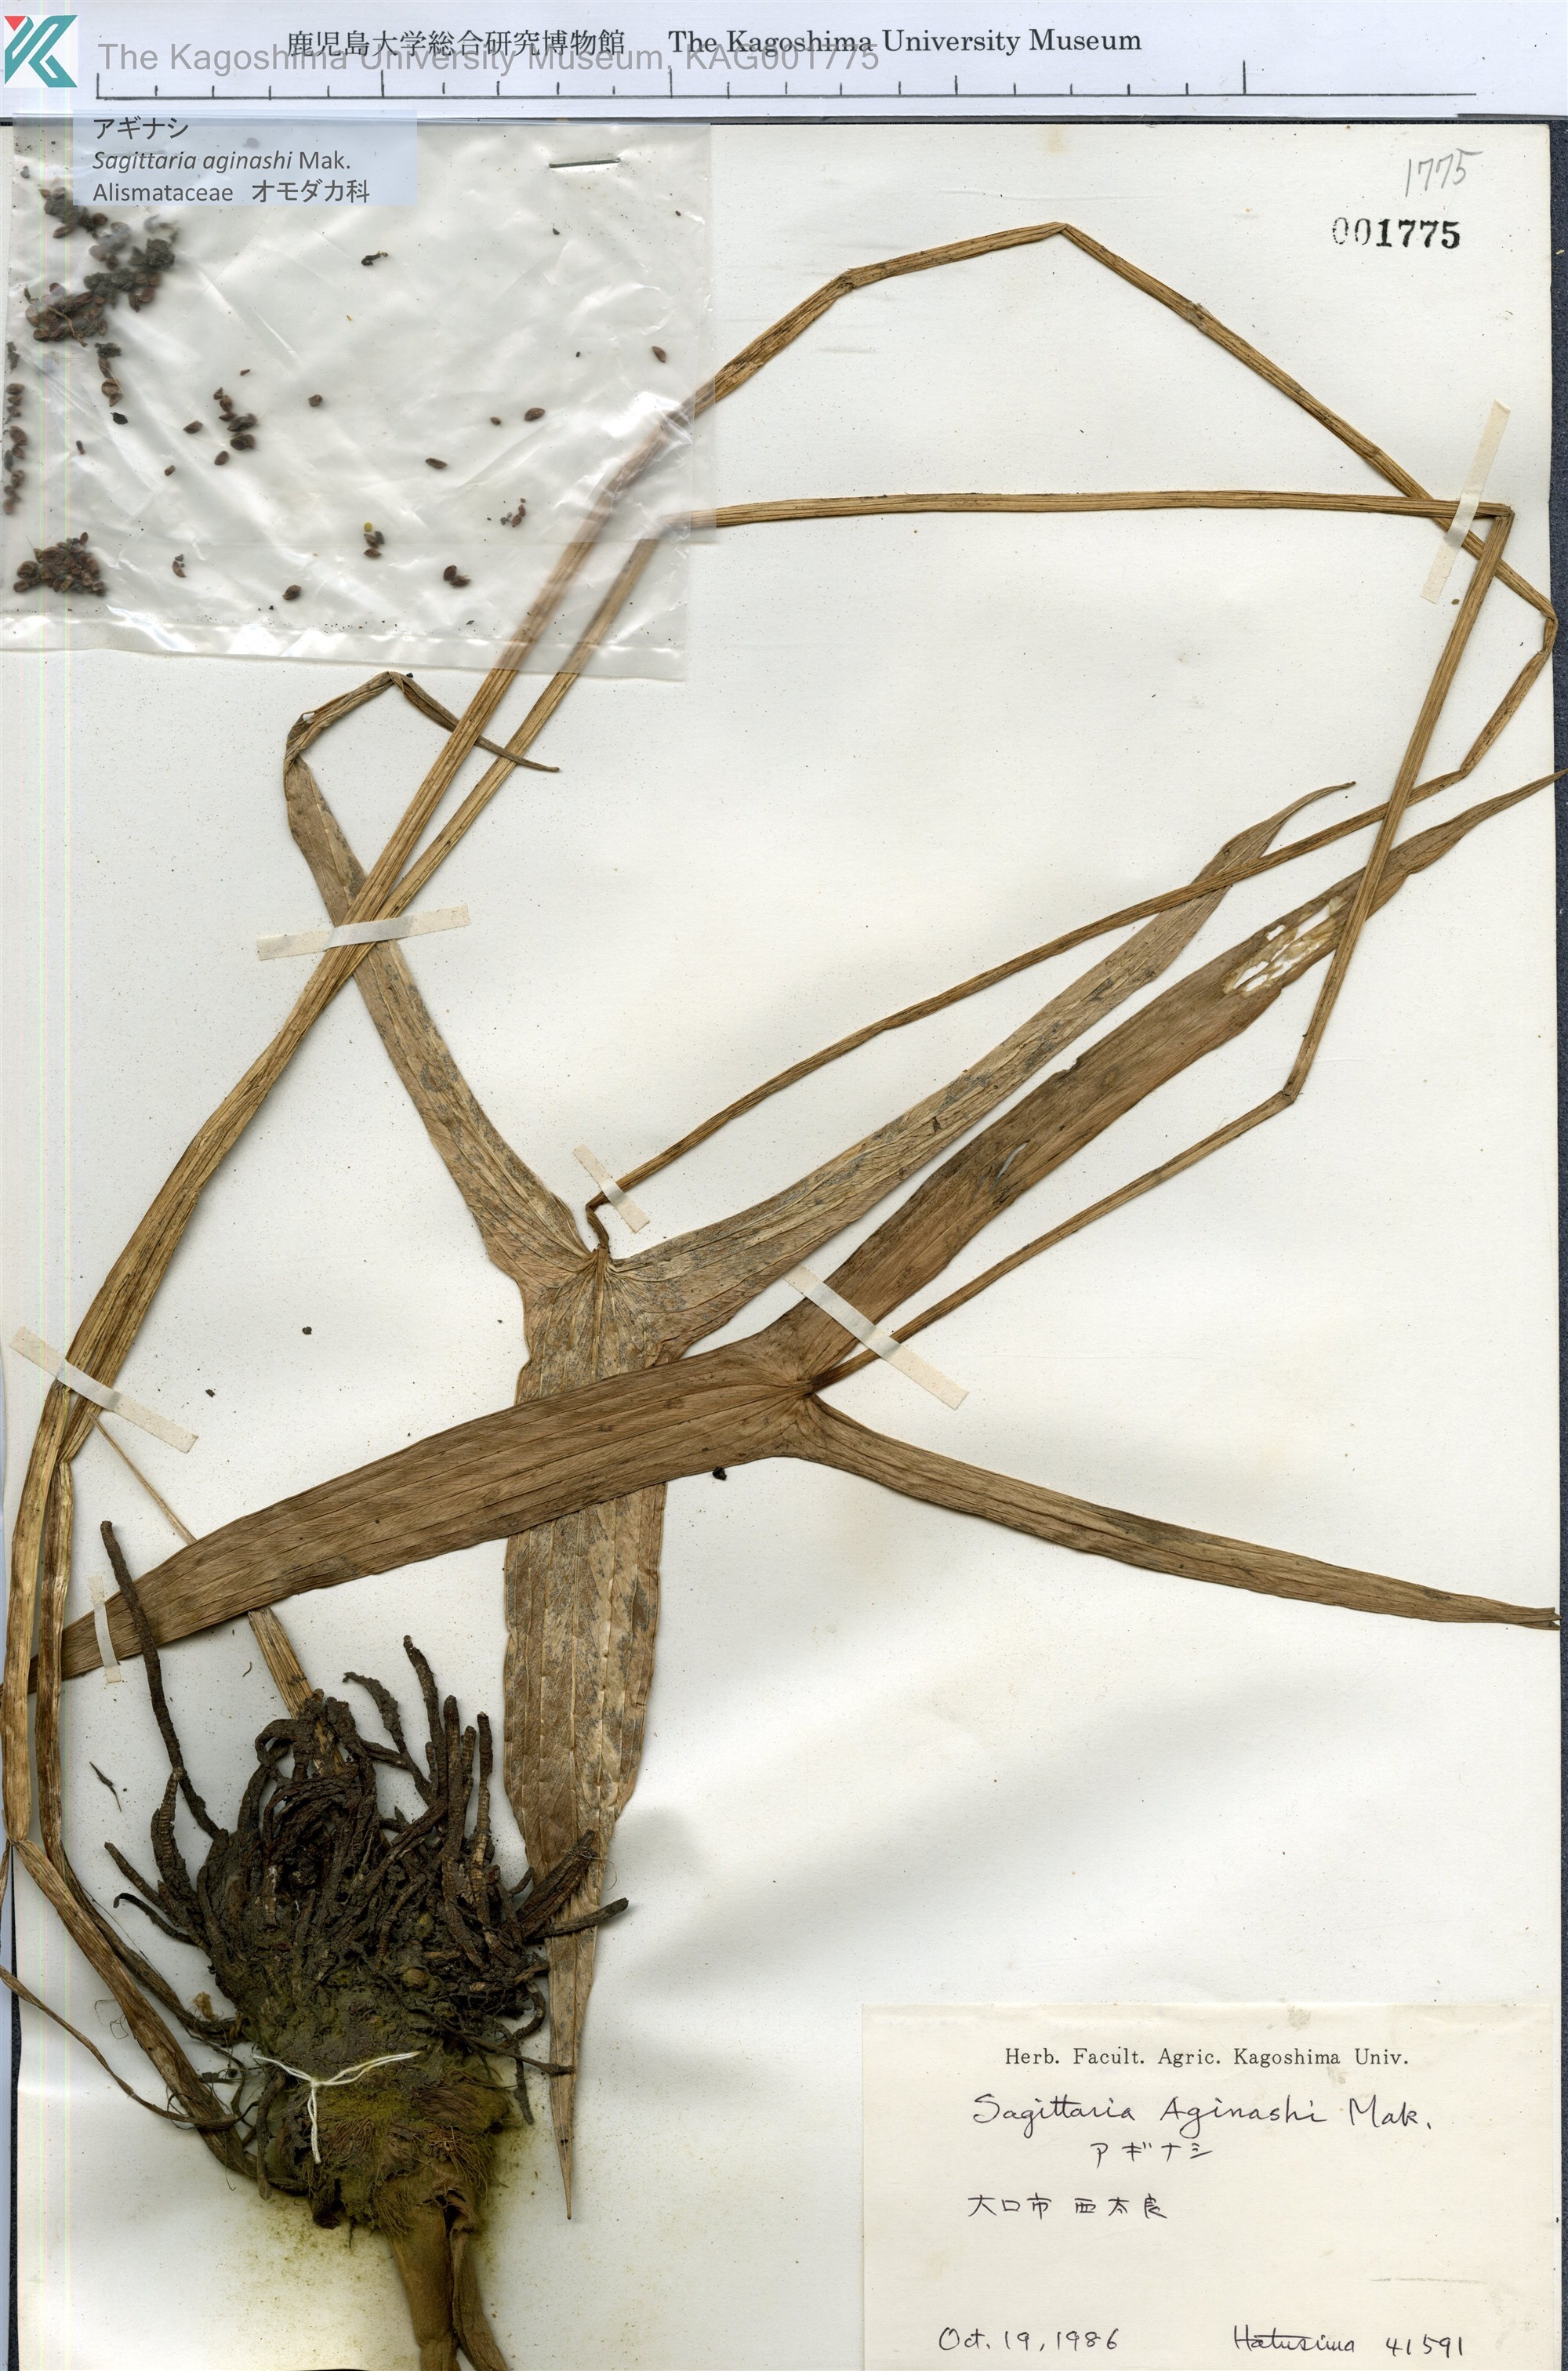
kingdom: Plantae
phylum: Tracheophyta
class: Liliopsida
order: Alismatales
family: Alismataceae
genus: Sagittaria
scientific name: Sagittaria aginashi
